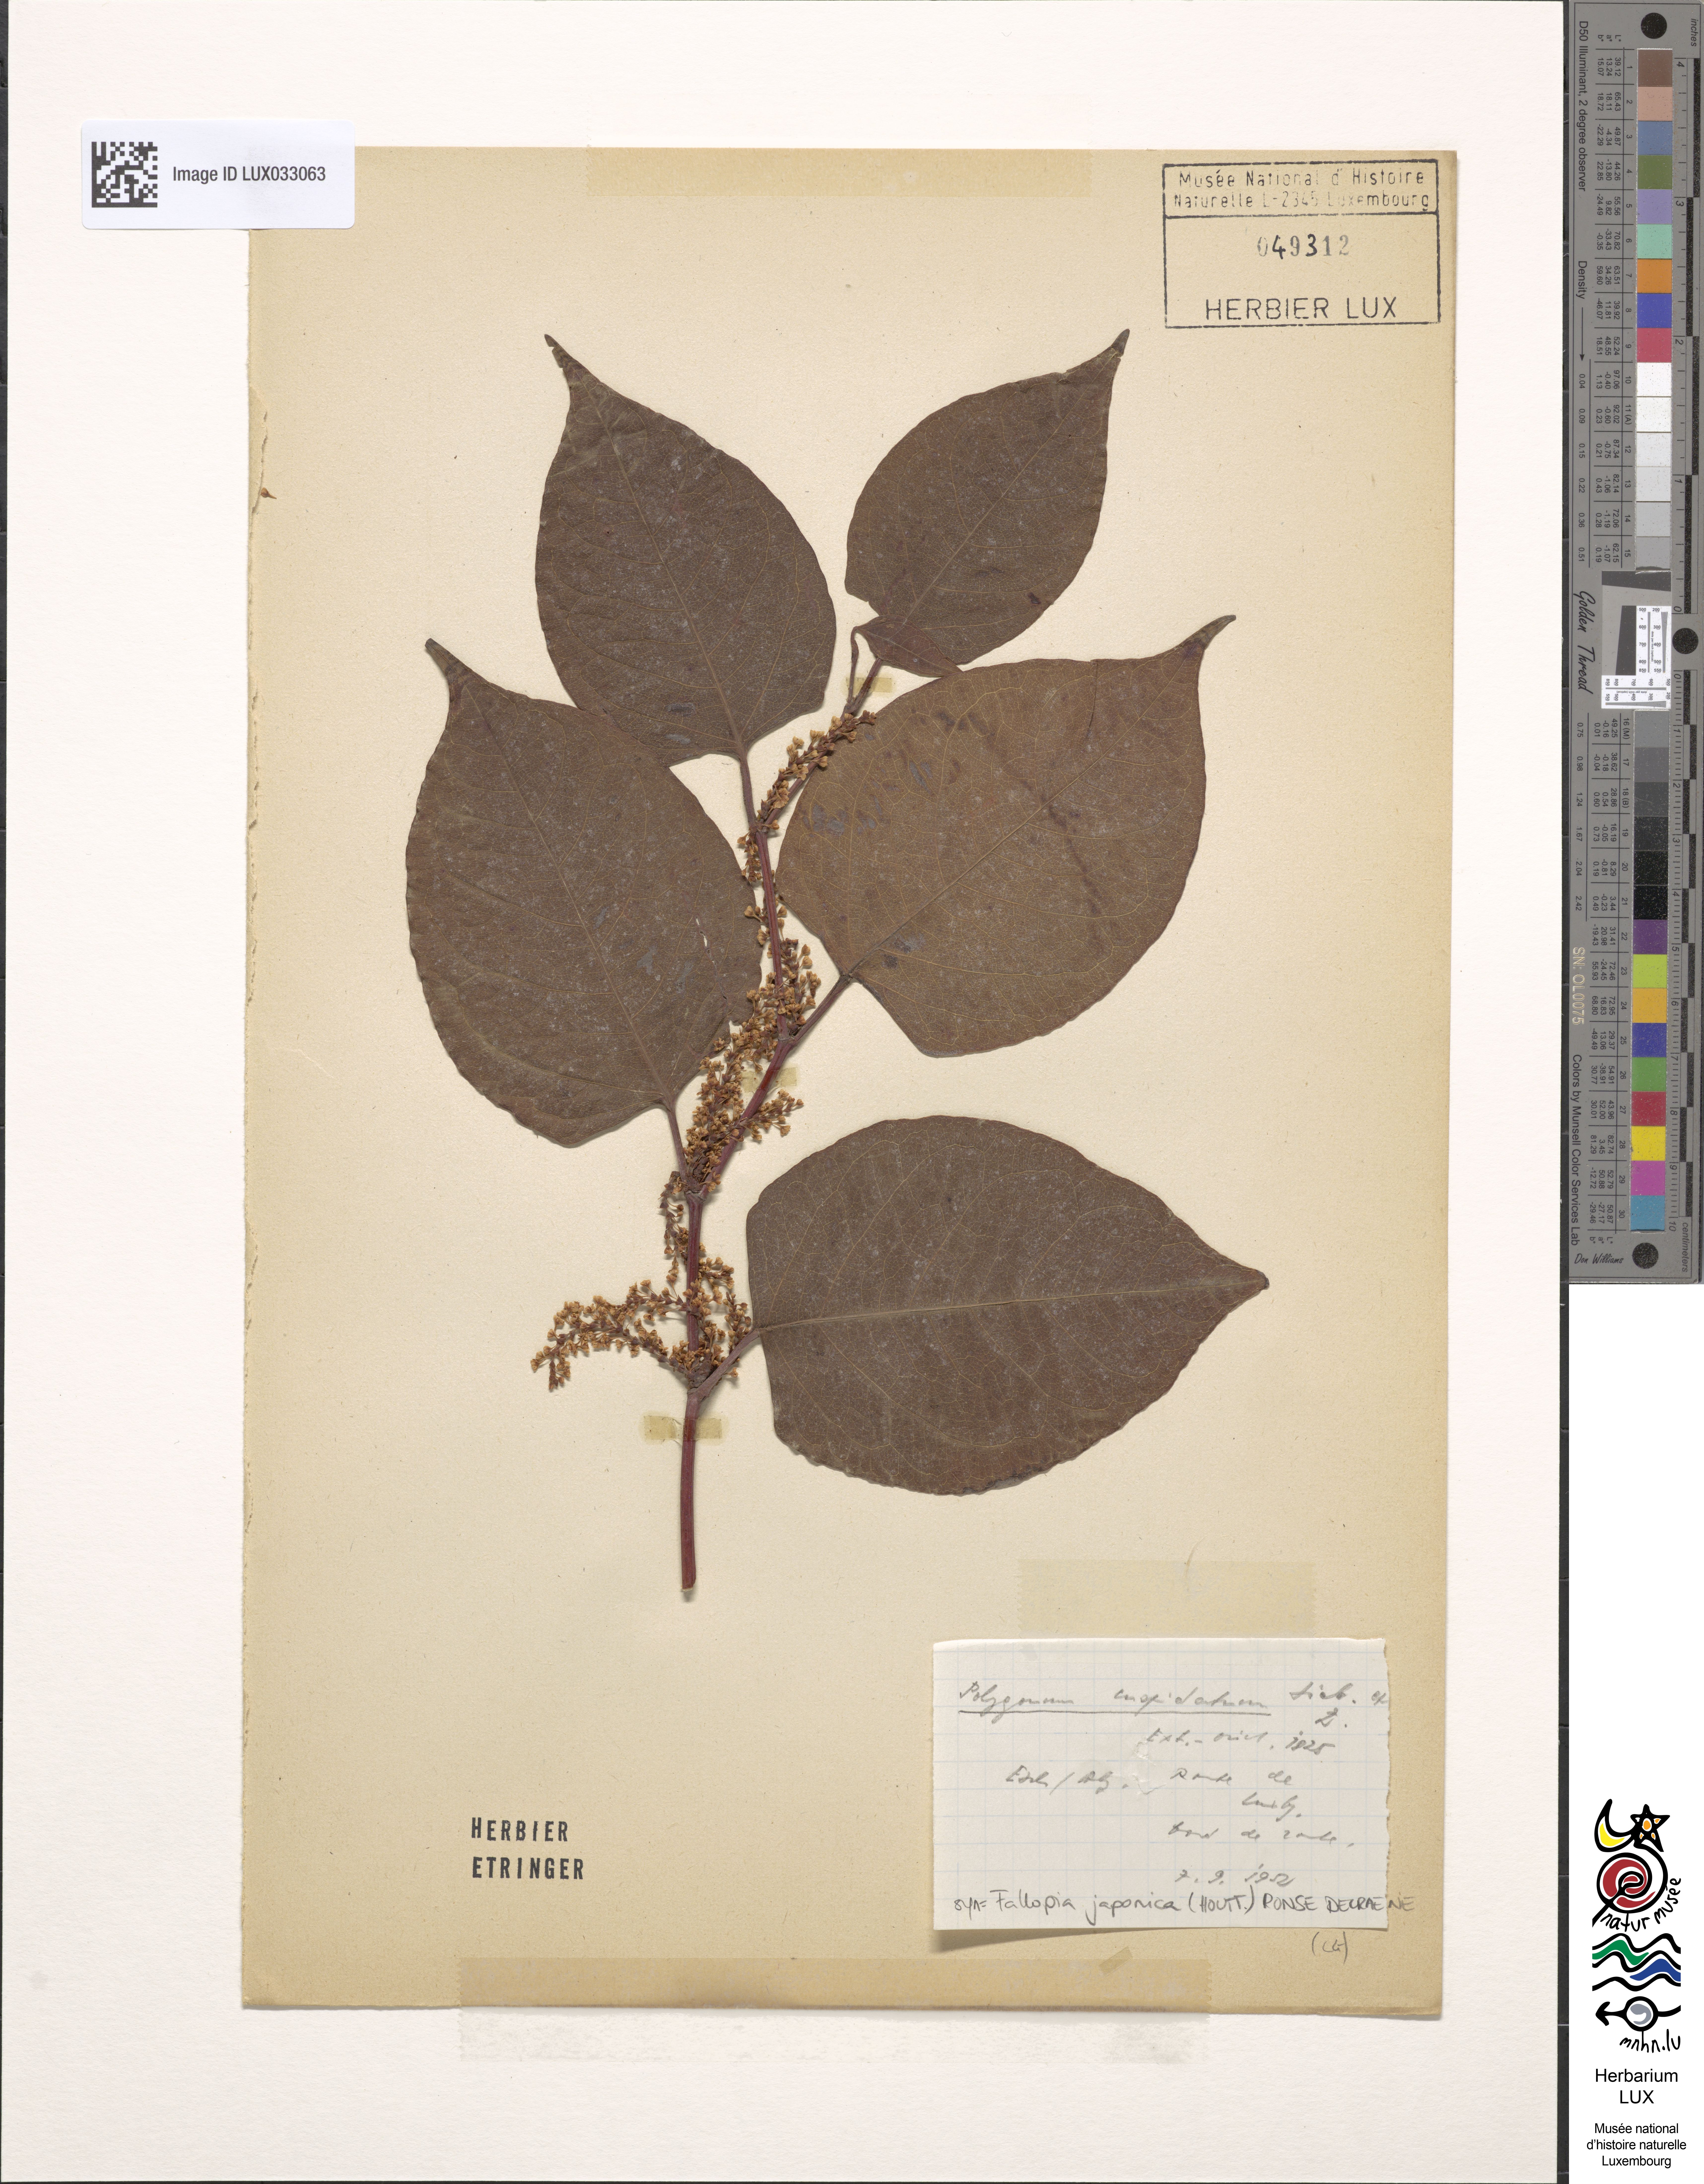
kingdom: Plantae
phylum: Tracheophyta
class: Magnoliopsida
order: Caryophyllales
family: Polygonaceae
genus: Reynoutria
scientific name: Reynoutria japonica
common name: Japanese knotweed
